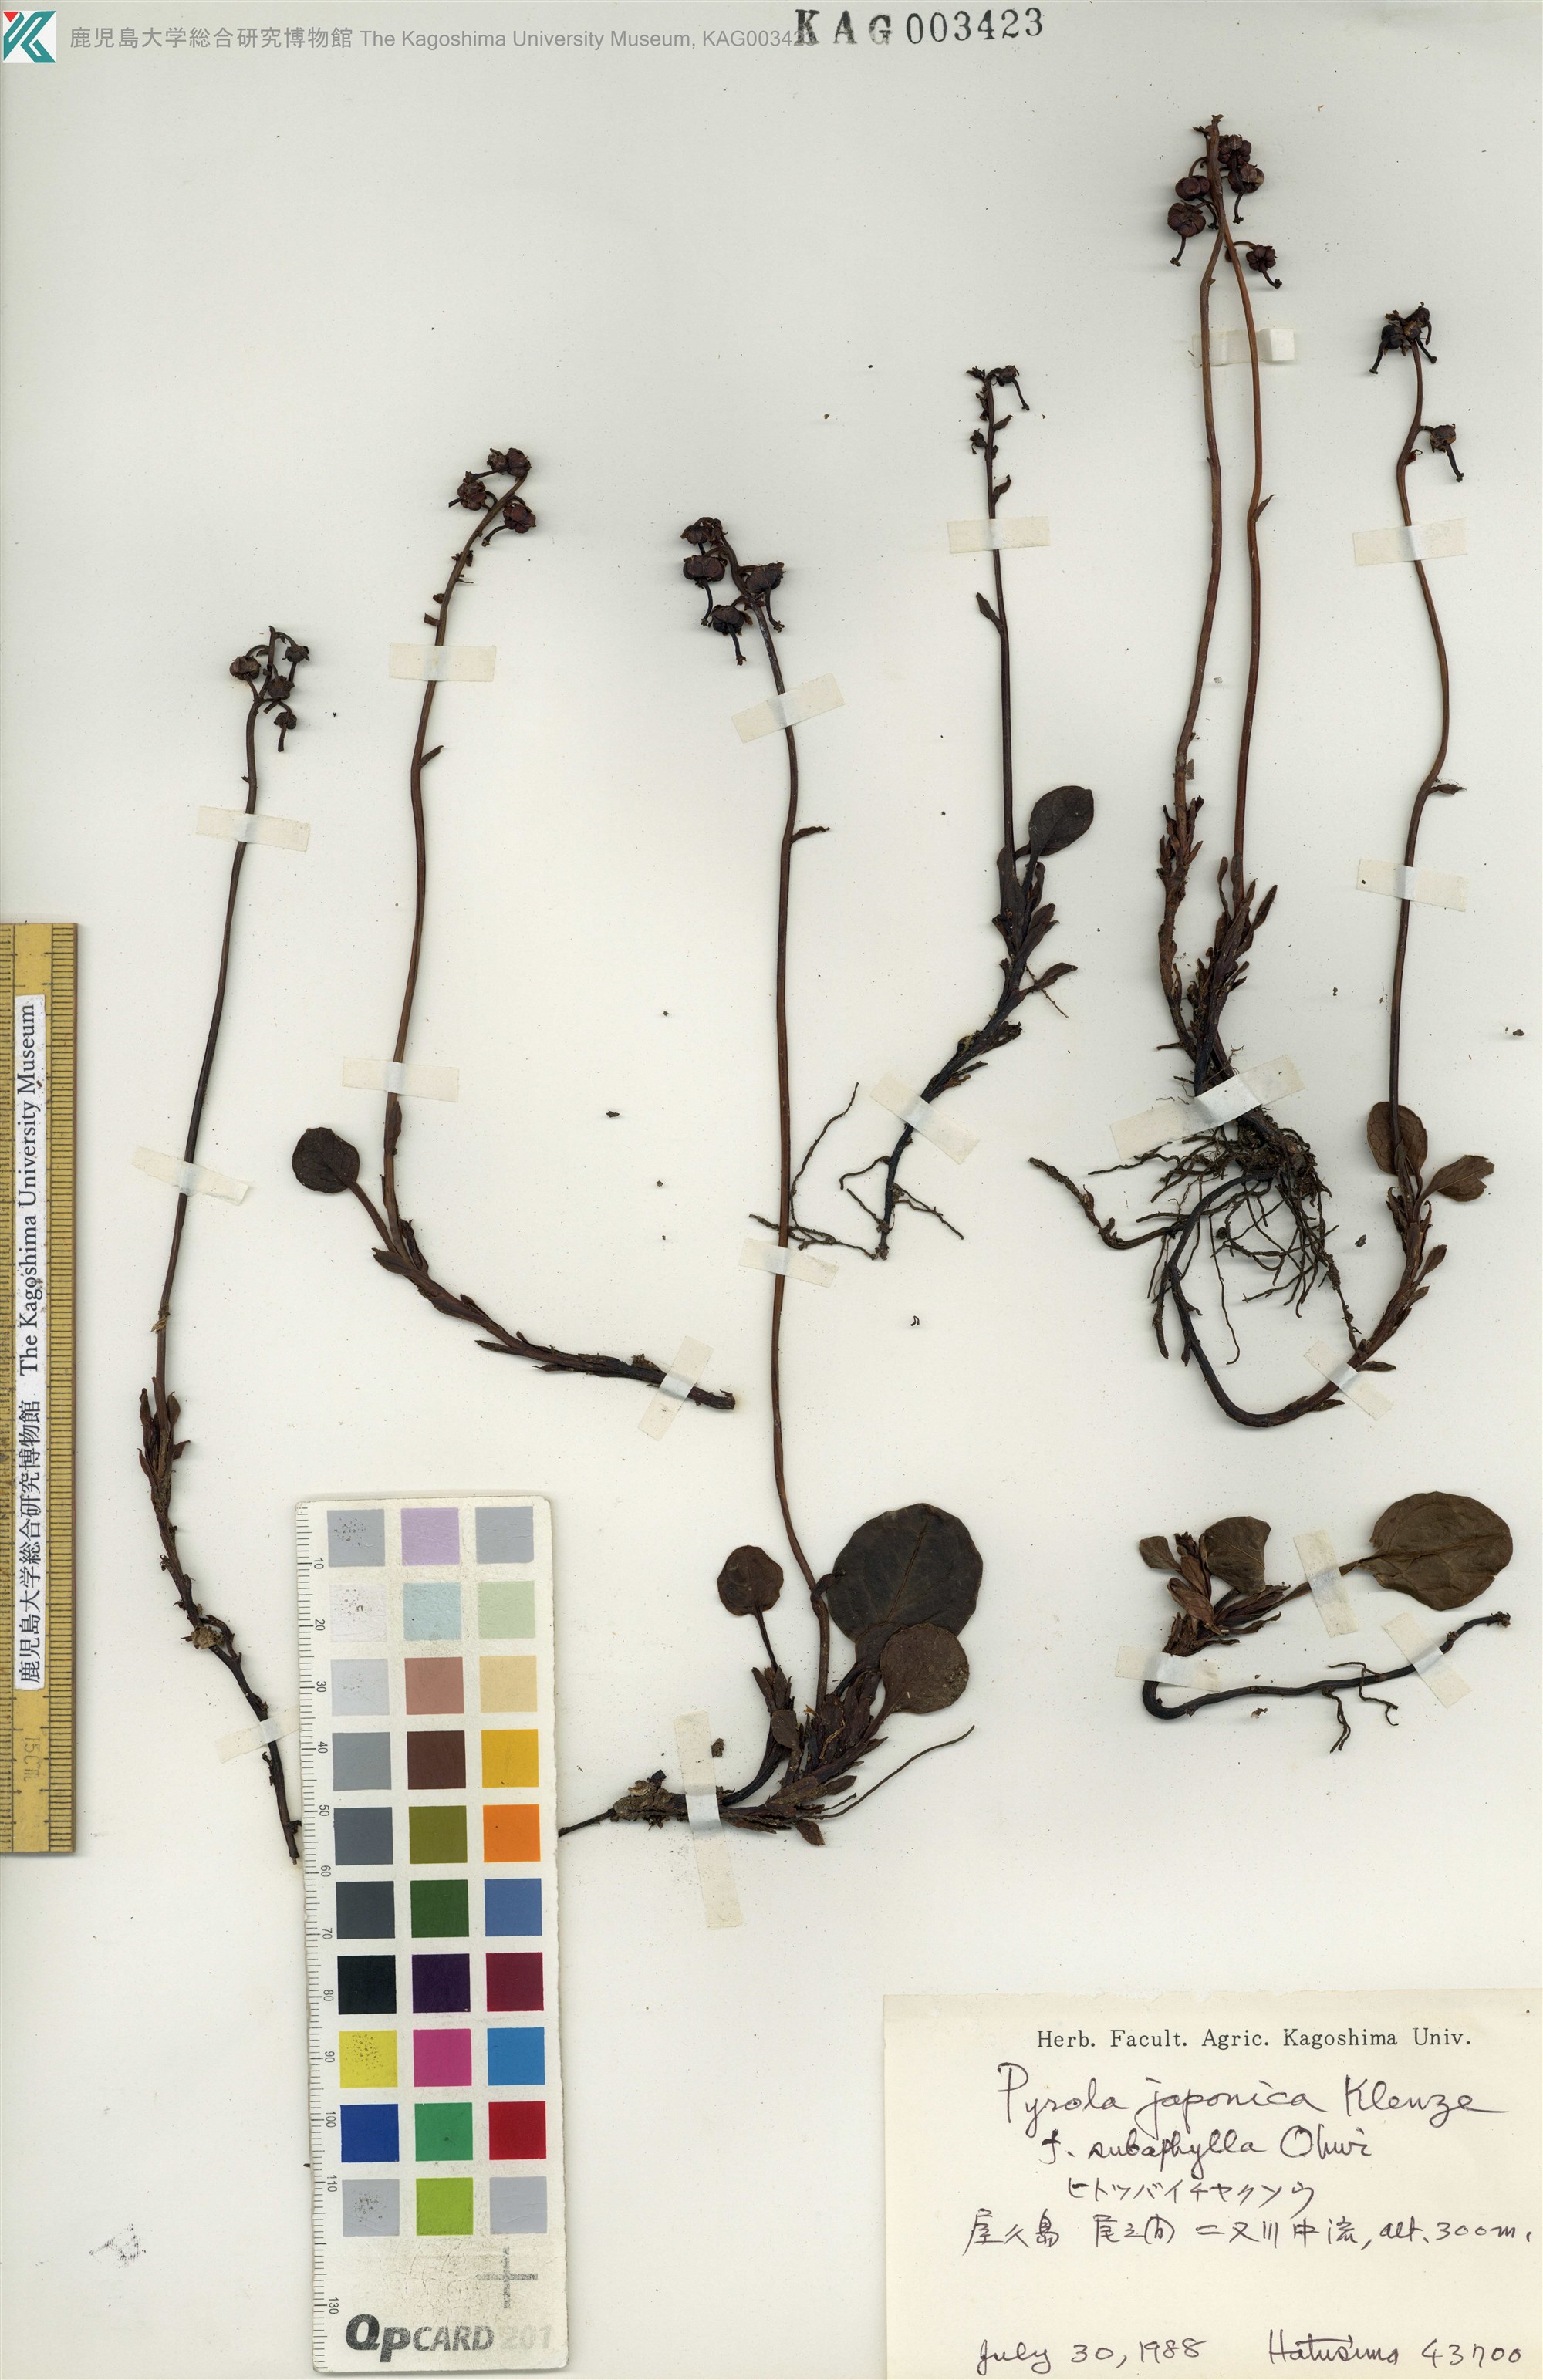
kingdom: Plantae
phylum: Tracheophyta
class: Magnoliopsida
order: Ericales
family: Ericaceae
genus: Pyrola
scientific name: Pyrola japonica
